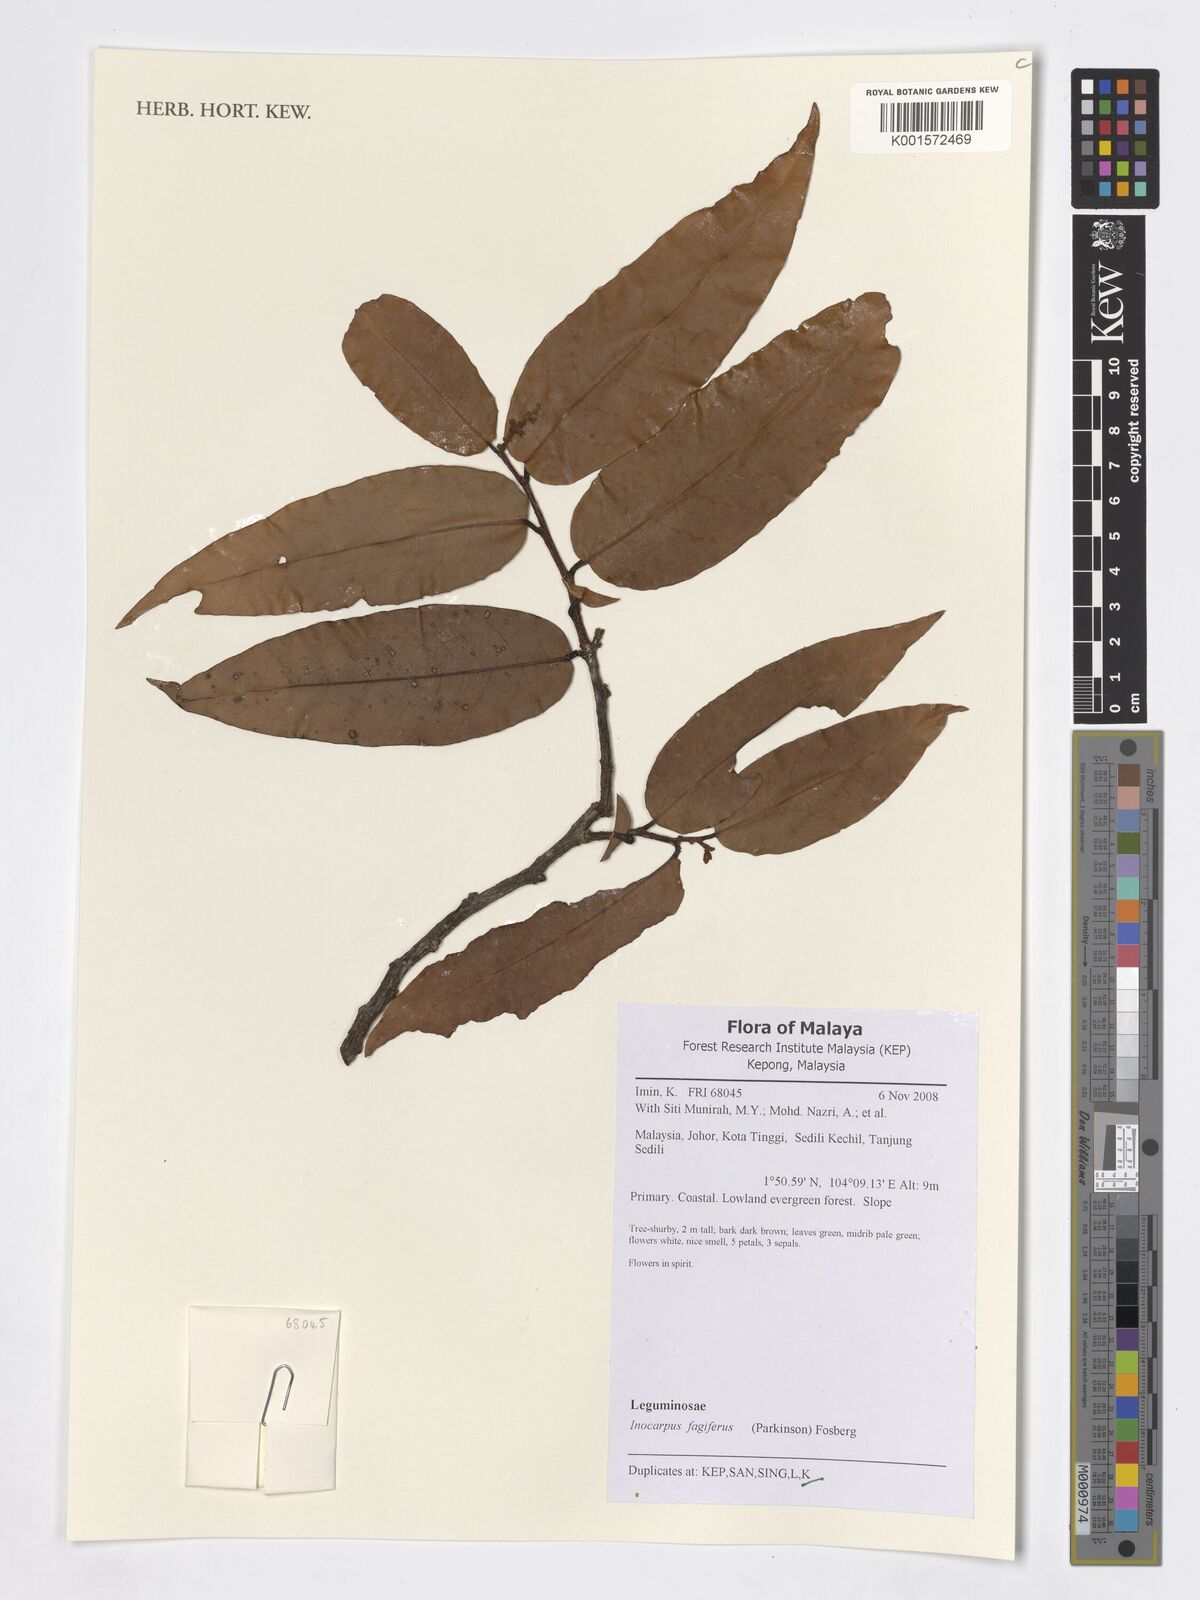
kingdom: Plantae
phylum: Tracheophyta
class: Magnoliopsida
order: Fabales
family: Fabaceae
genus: Inocarpus
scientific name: Inocarpus fagifer
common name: Polynesian chestnut
